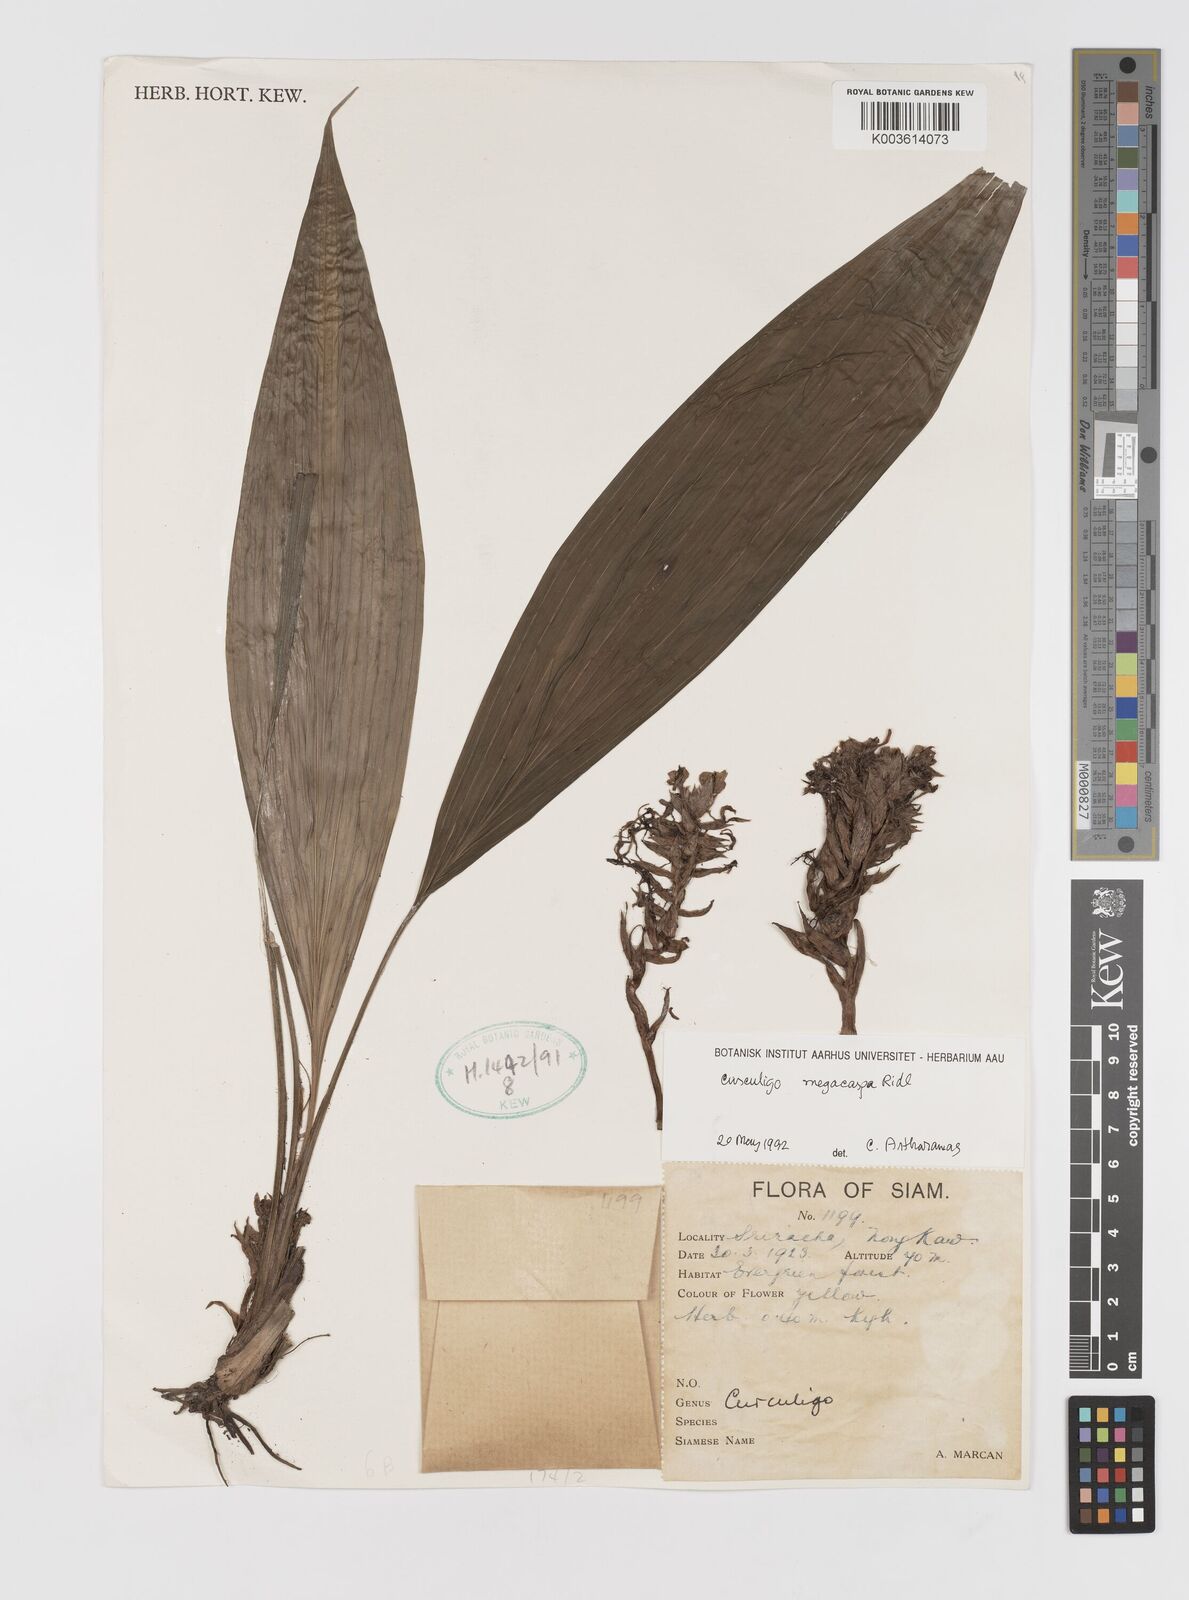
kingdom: Plantae
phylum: Tracheophyta
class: Liliopsida
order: Asparagales
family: Hypoxidaceae
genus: Curculigo
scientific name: Curculigo latifolia
